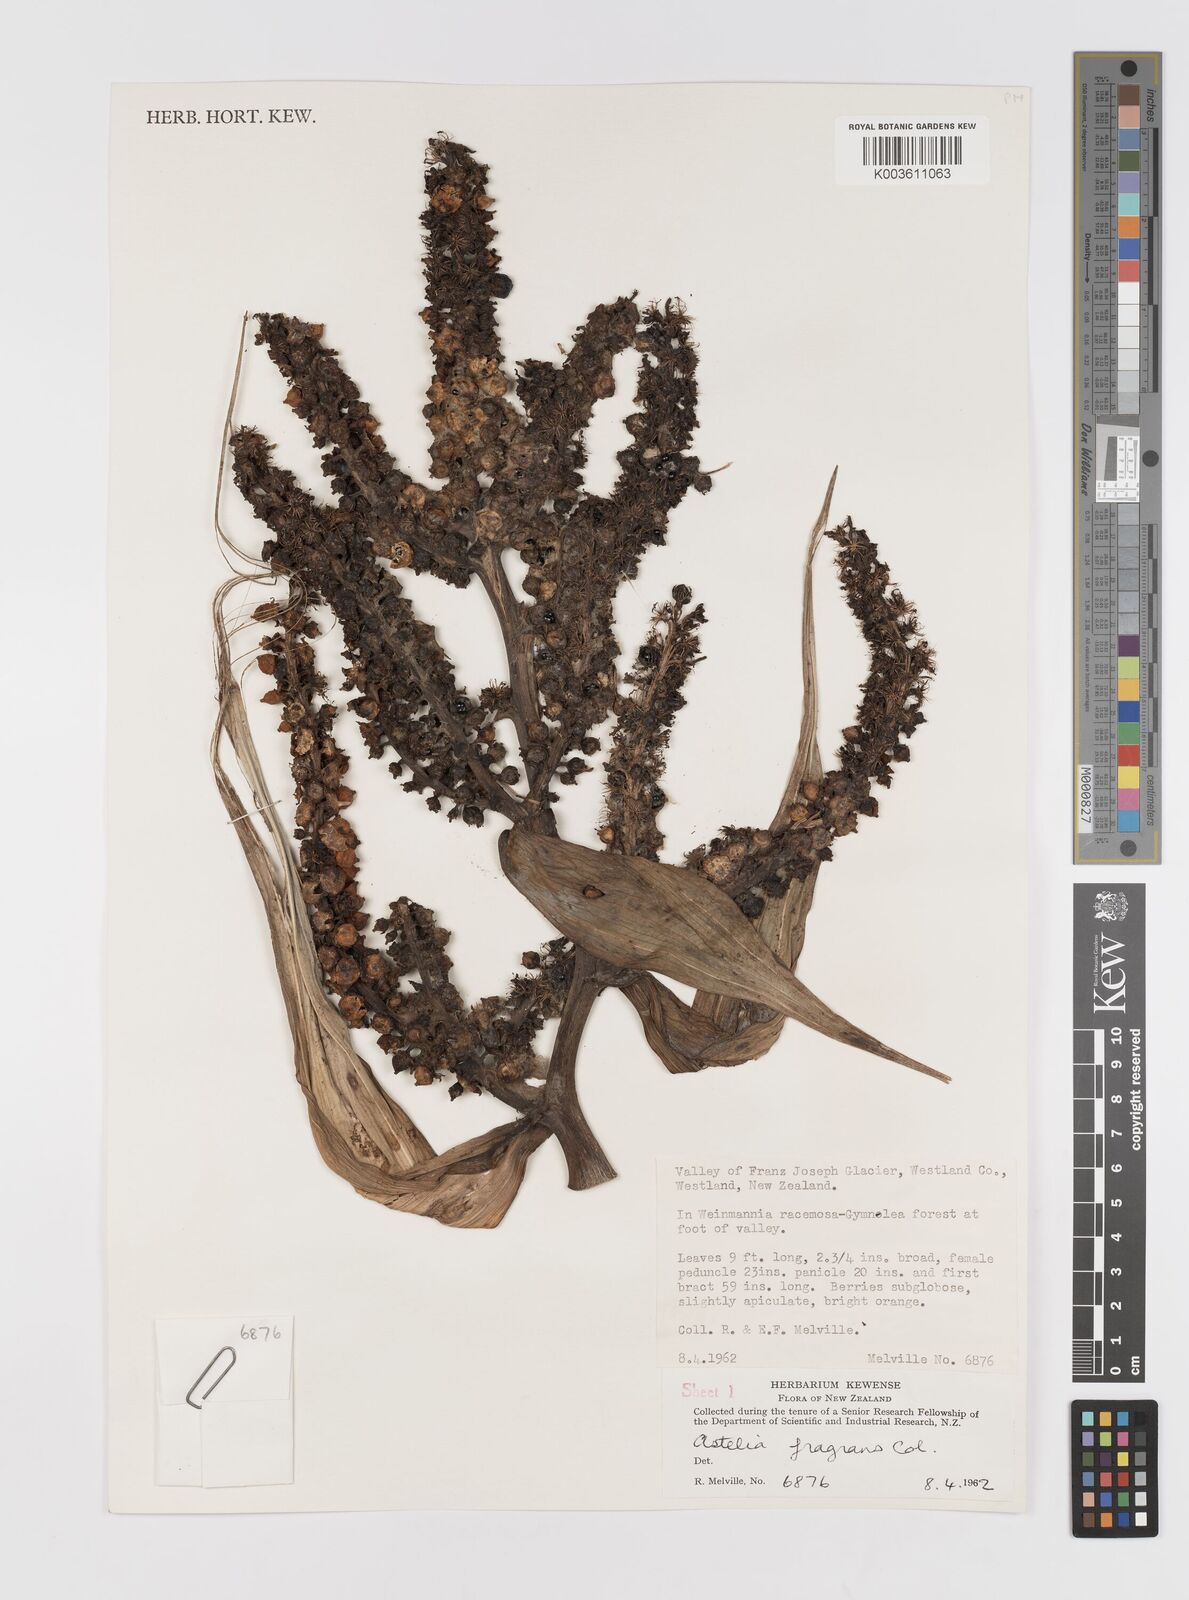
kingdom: Plantae
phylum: Tracheophyta
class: Liliopsida
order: Asparagales
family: Asteliaceae
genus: Astelia
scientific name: Astelia fragrans
